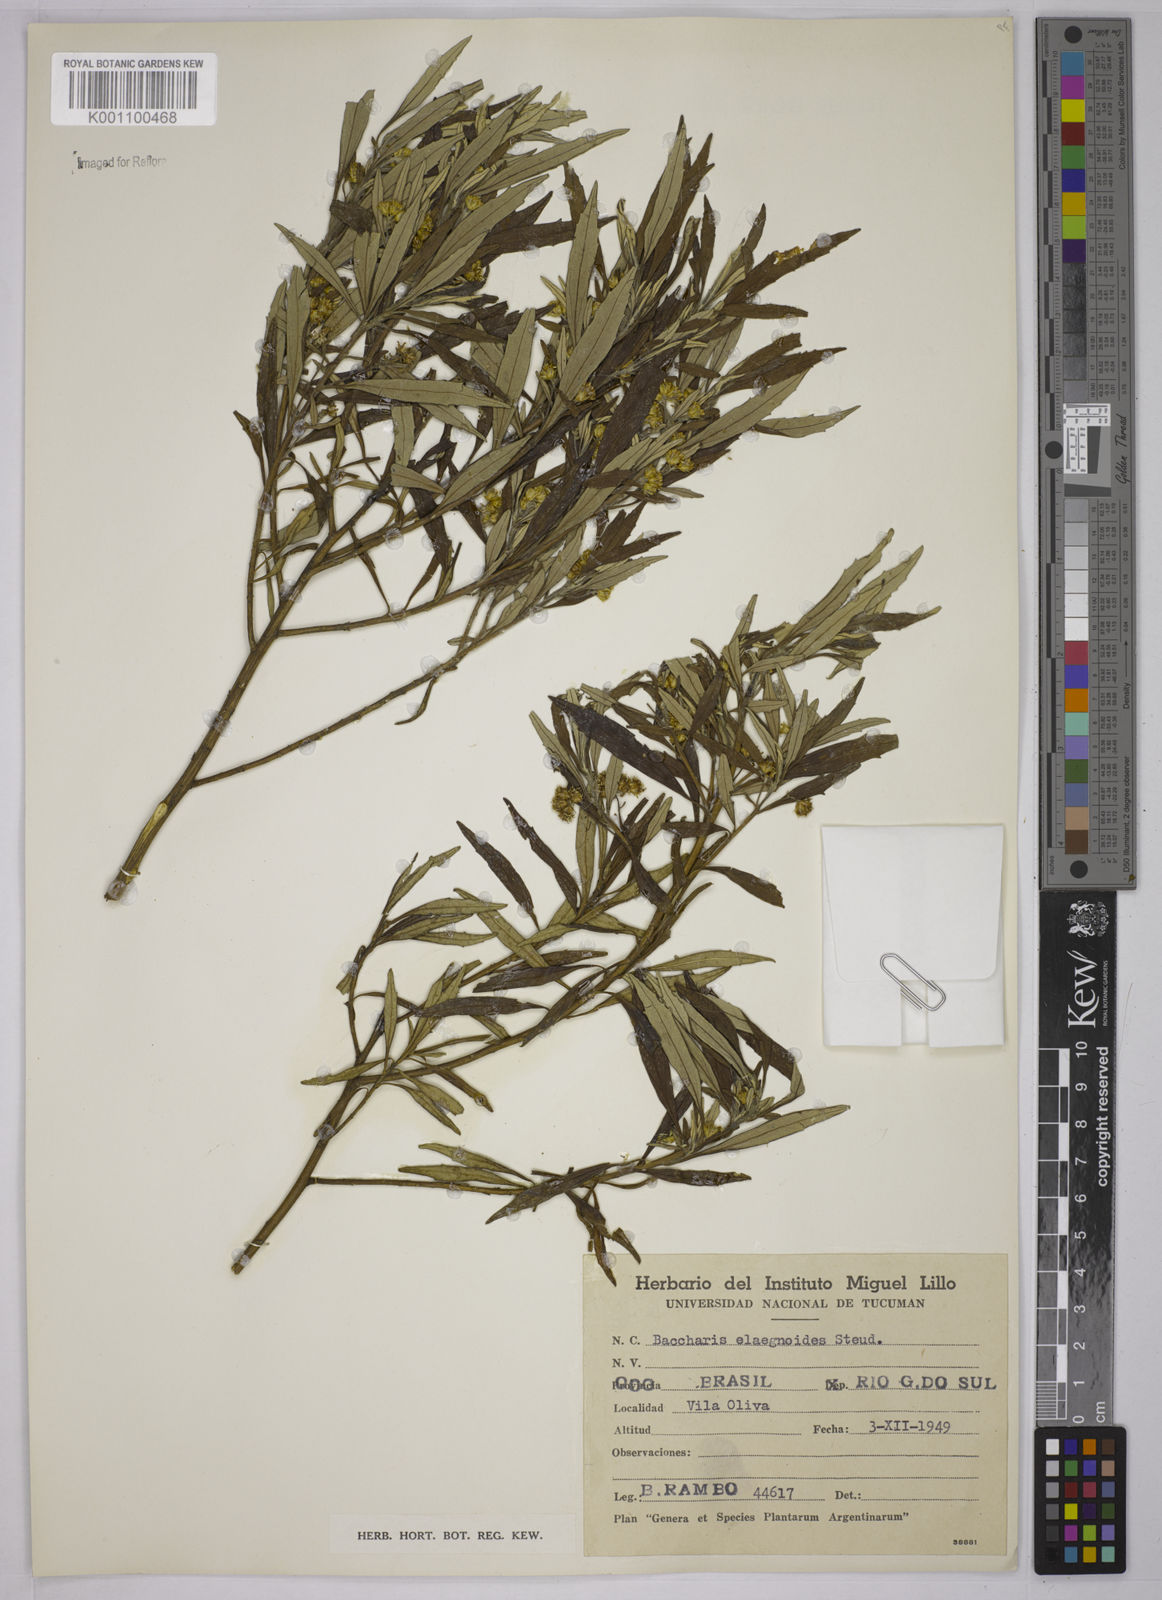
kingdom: Plantae
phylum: Tracheophyta
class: Magnoliopsida
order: Asterales
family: Asteraceae
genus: Baccharis
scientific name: Baccharis
